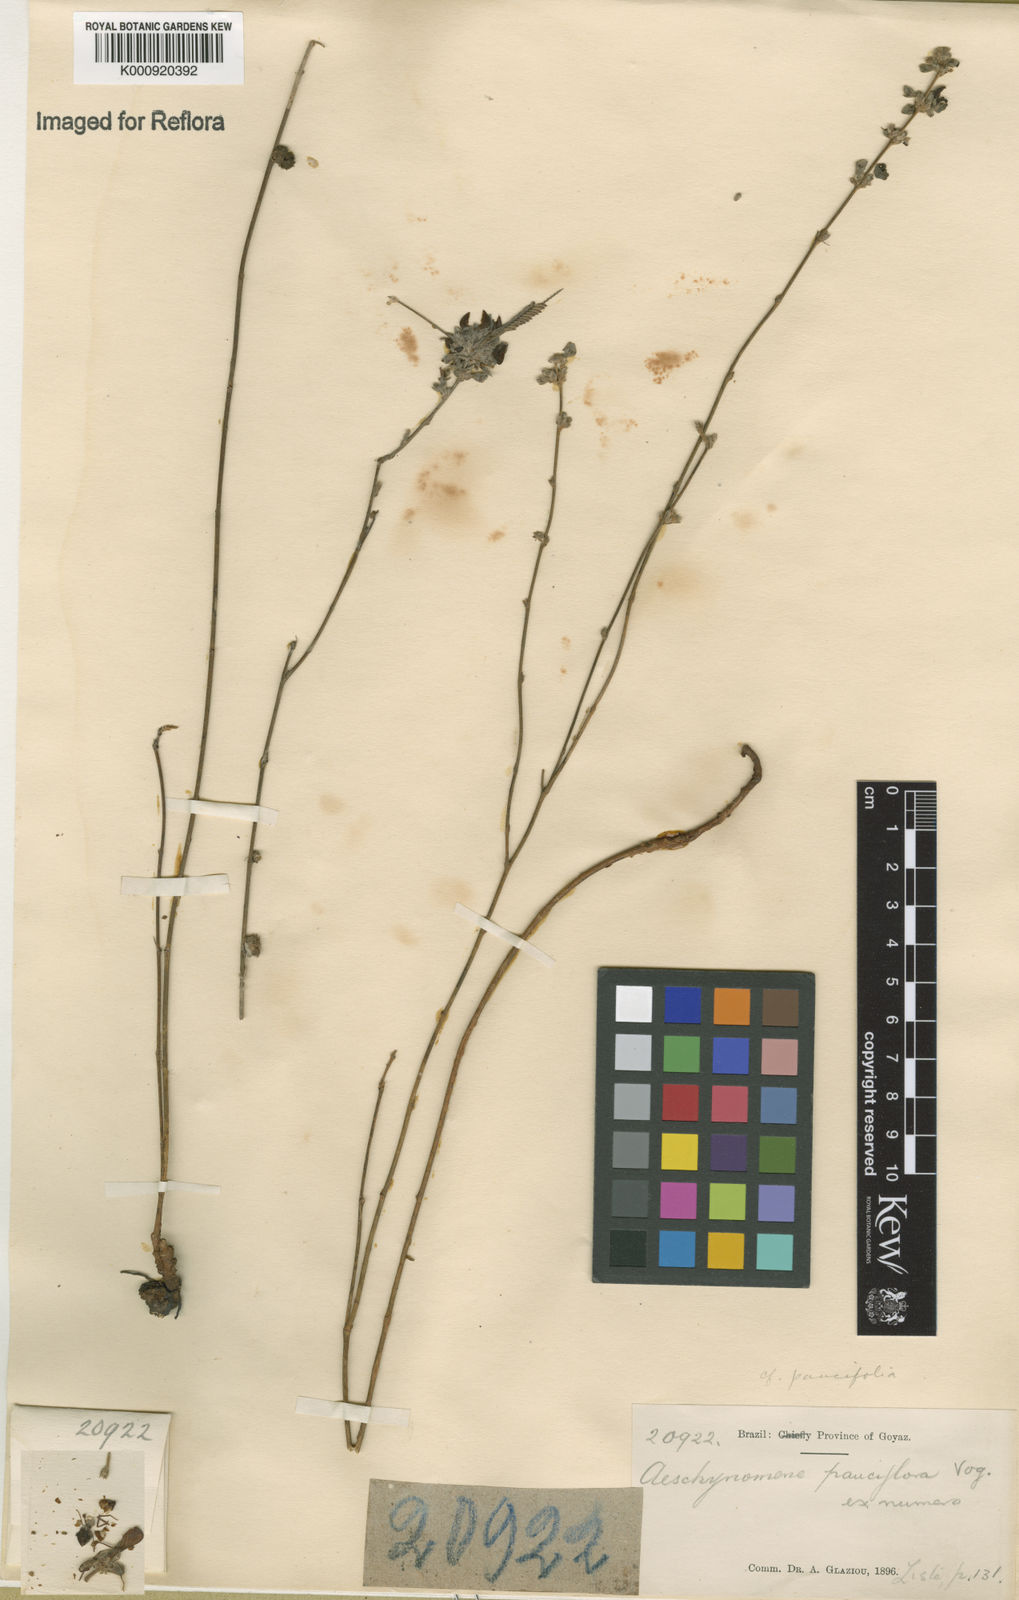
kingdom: Plantae
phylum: Tracheophyta
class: Magnoliopsida
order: Fabales
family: Fabaceae
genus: Ctenodon
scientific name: Ctenodon paucifolius
